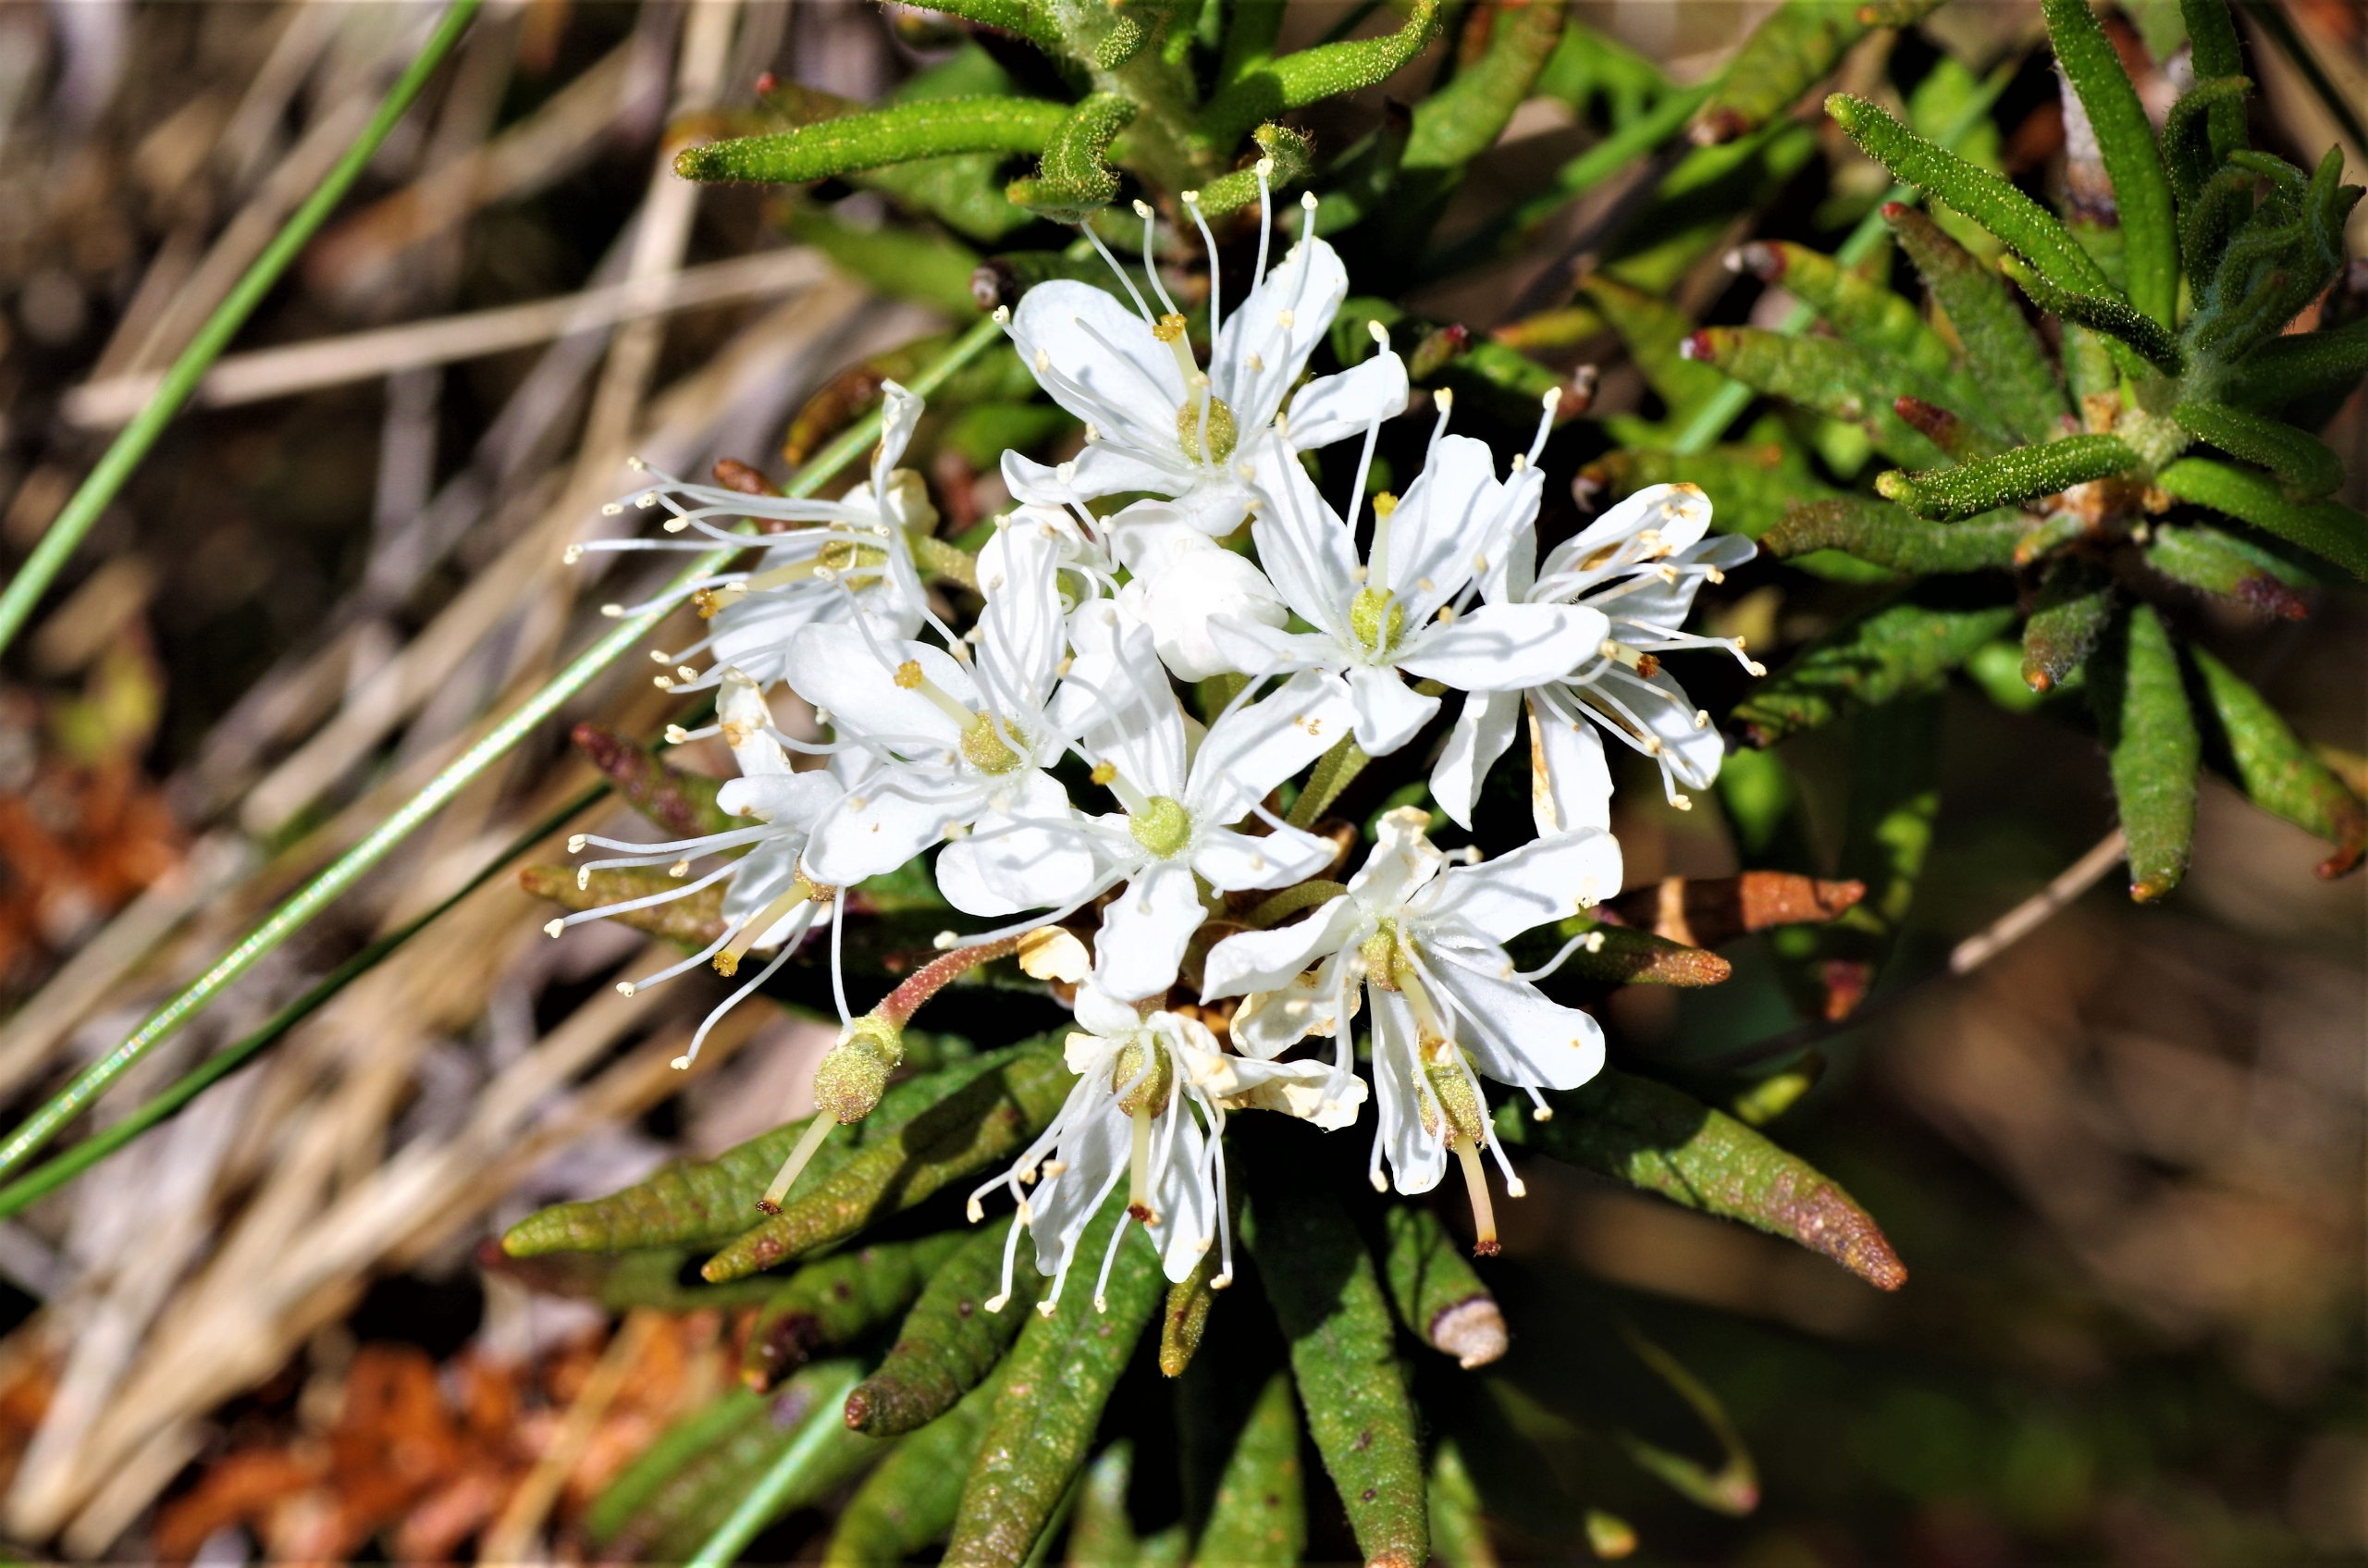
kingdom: Plantae
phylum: Tracheophyta
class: Magnoliopsida
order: Ericales
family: Ericaceae
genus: Rhododendron
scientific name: Rhododendron tomentosum
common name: Mosepost
